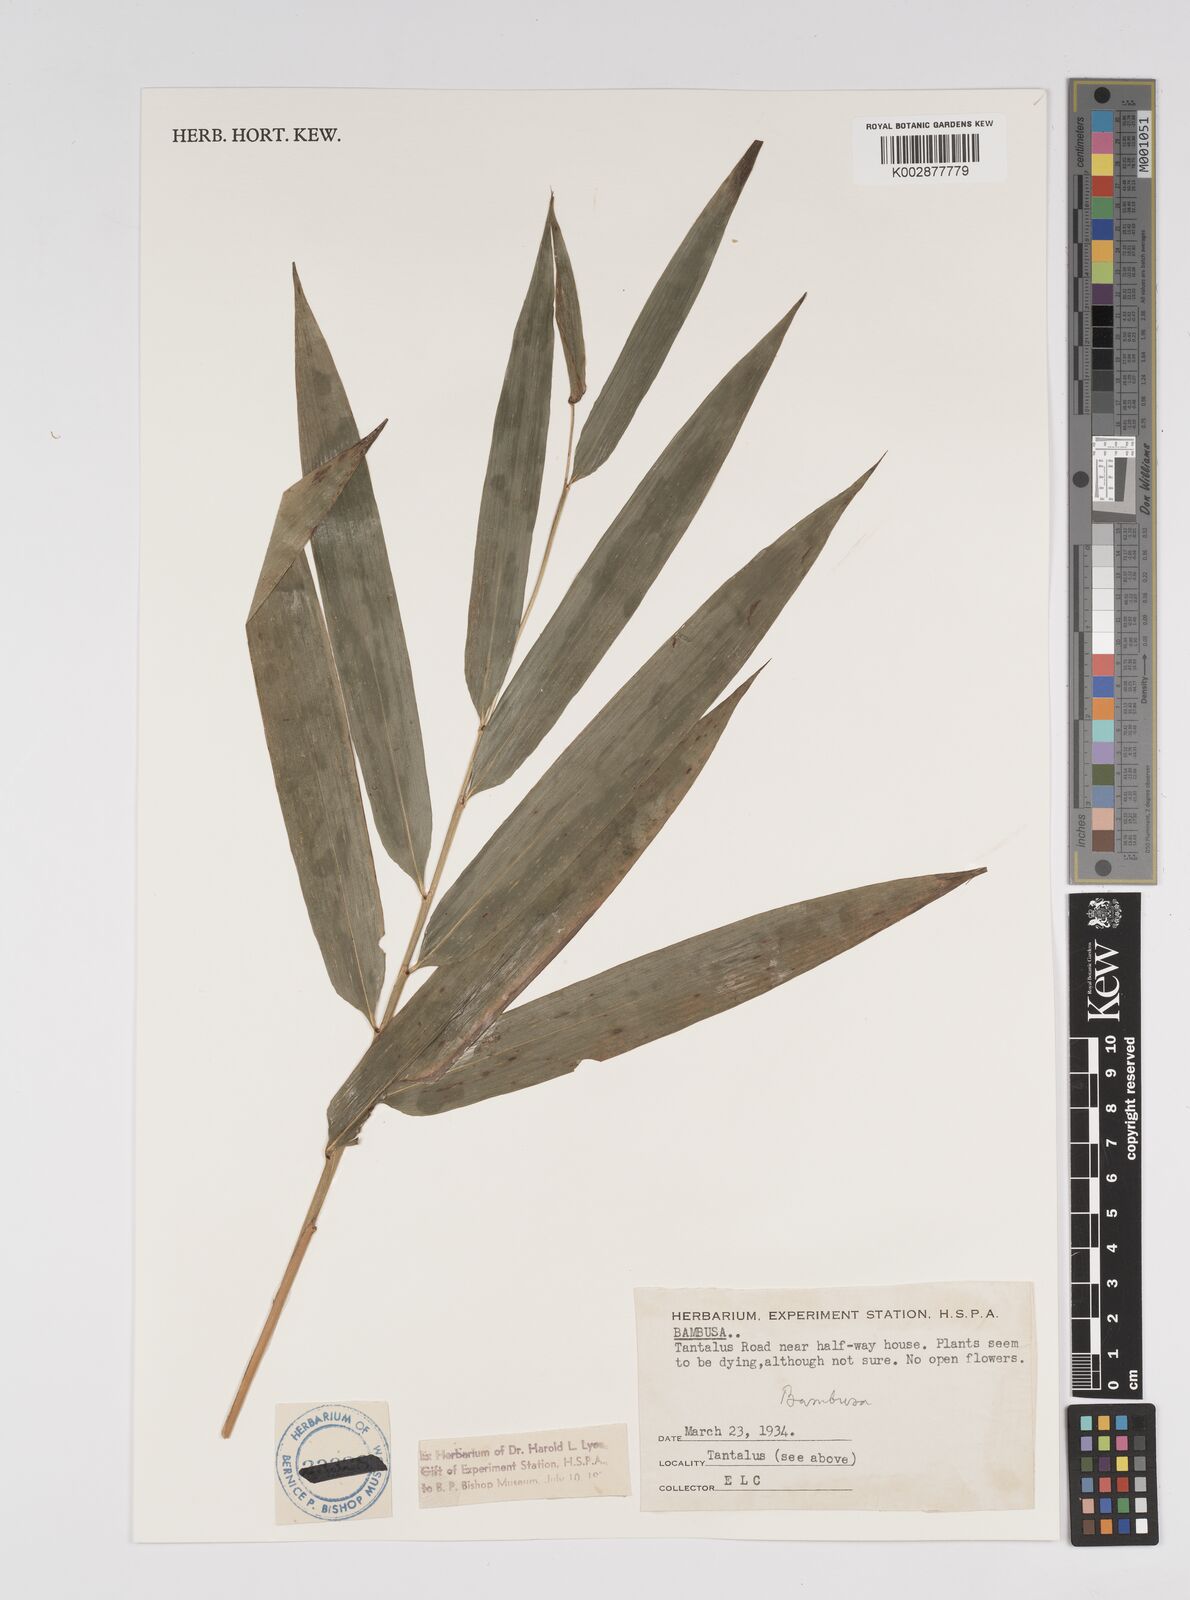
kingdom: Plantae
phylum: Tracheophyta
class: Liliopsida
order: Poales
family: Poaceae
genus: Bambusa
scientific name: Bambusa
